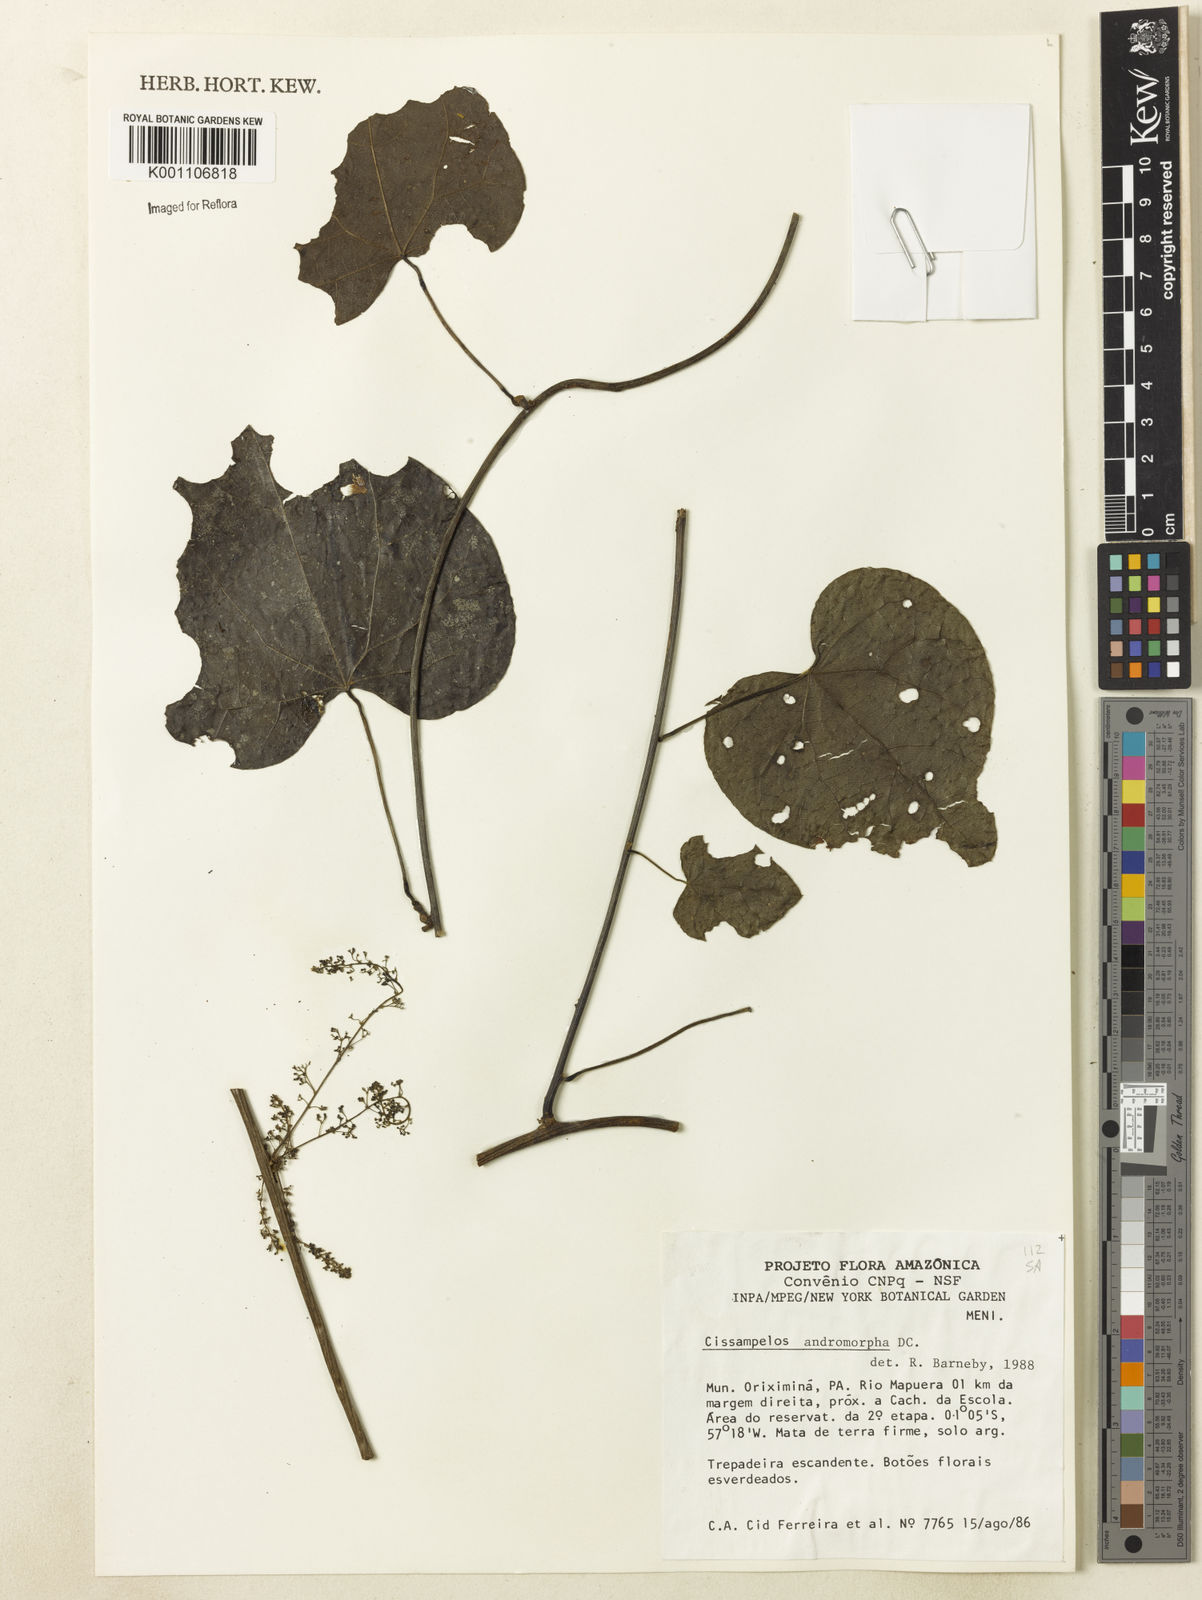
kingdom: Plantae
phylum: Tracheophyta
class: Magnoliopsida
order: Ranunculales
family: Menispermaceae
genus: Cissampelos
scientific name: Cissampelos andromorpha
